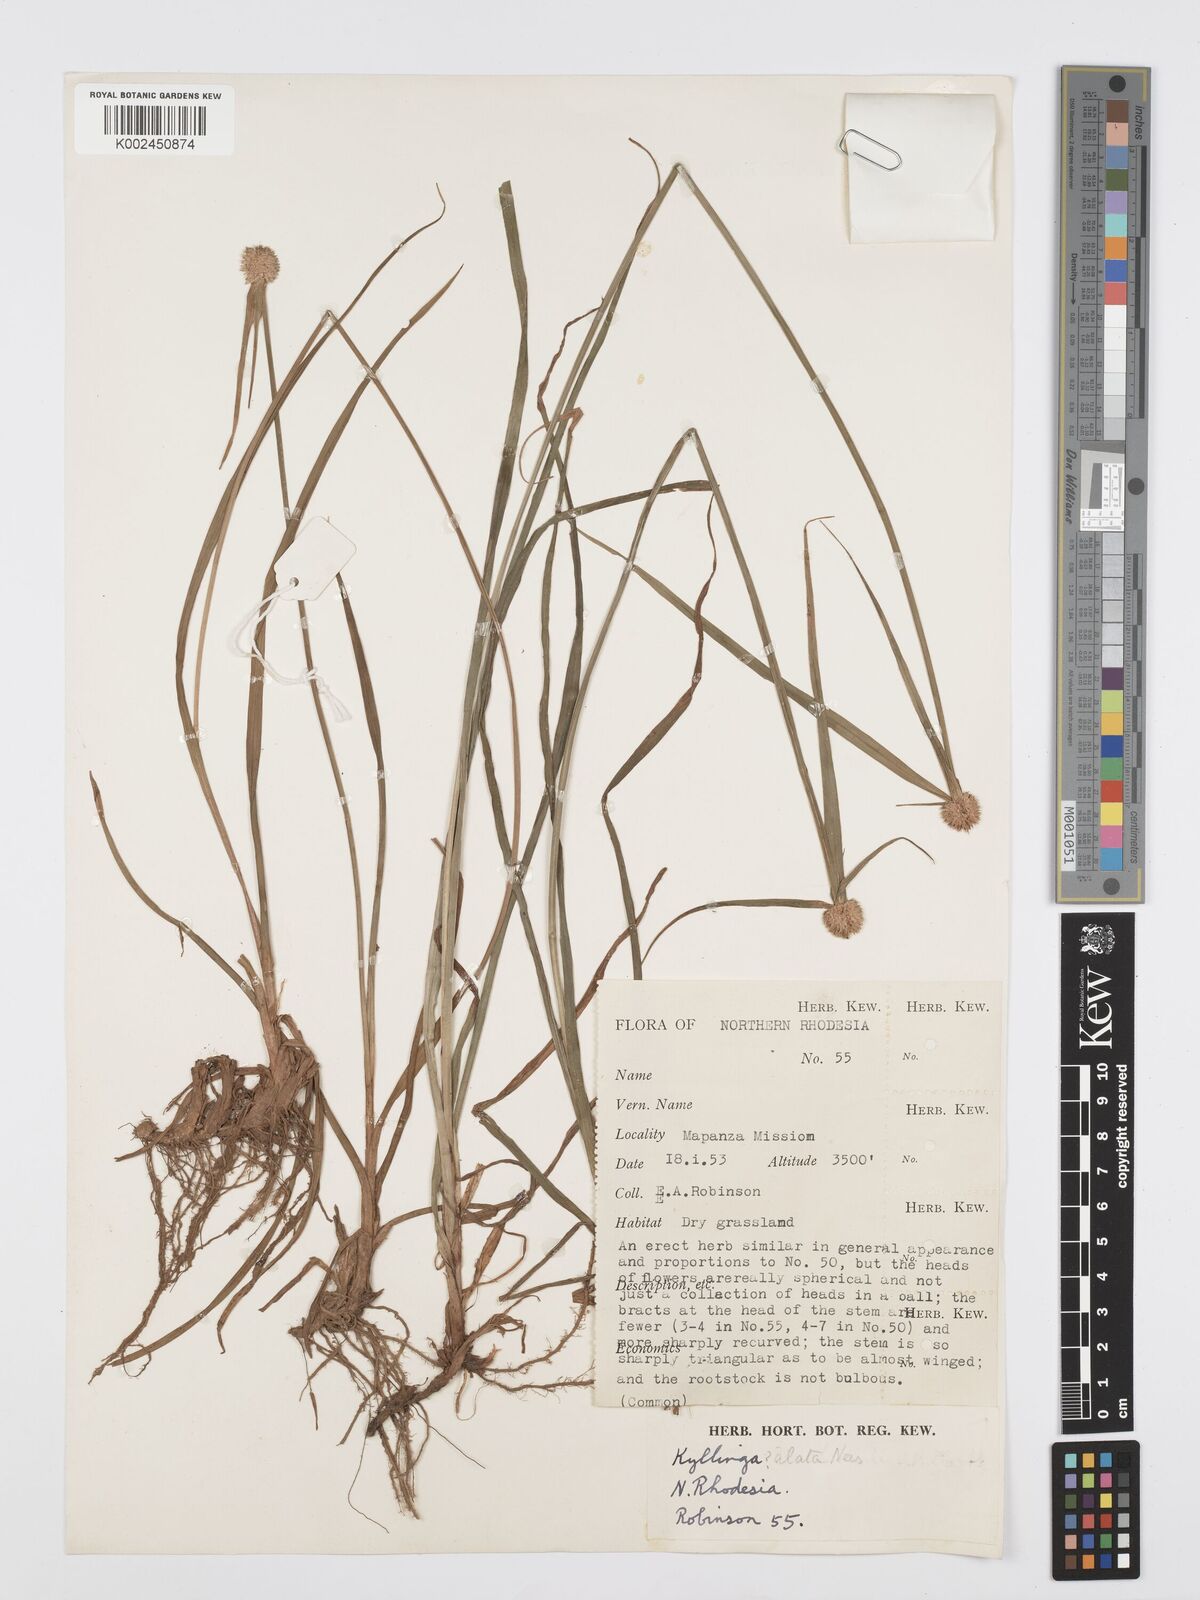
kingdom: Plantae
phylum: Tracheophyta
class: Liliopsida
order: Poales
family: Cyperaceae
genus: Cyperus
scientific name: Cyperus
